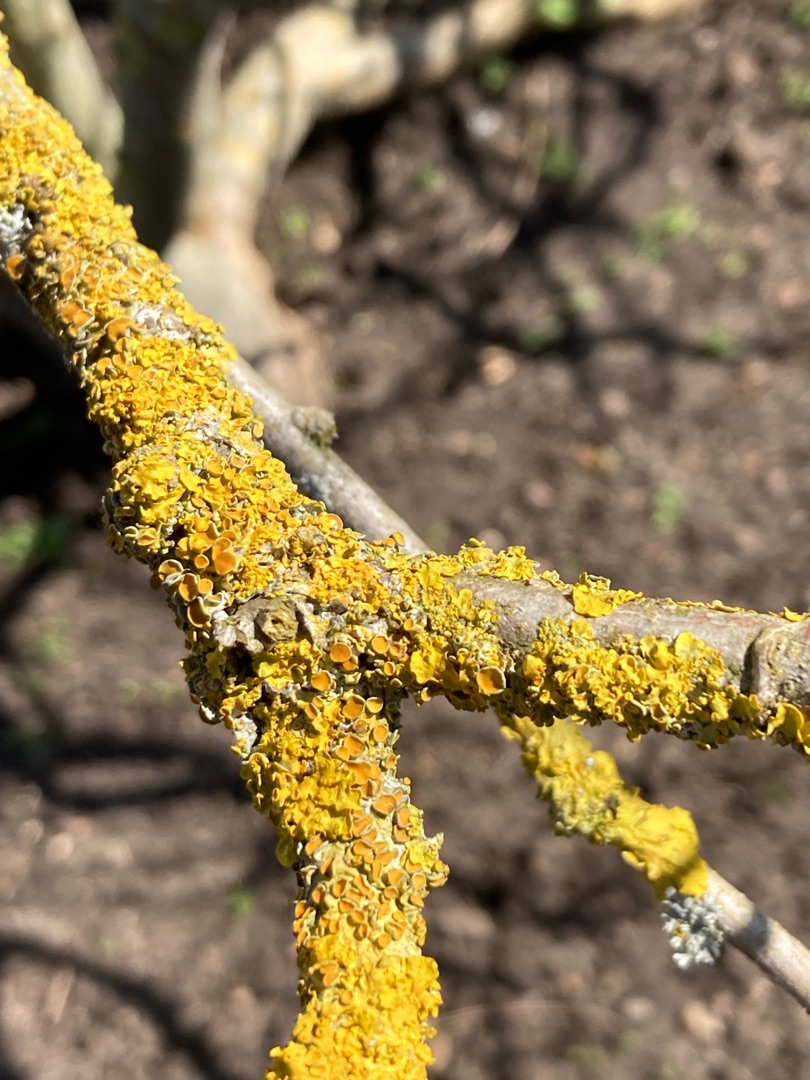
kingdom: Fungi
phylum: Ascomycota
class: Lecanoromycetes
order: Teloschistales
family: Teloschistaceae
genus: Xanthoria
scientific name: Xanthoria parietina
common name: Almindelig væggelav
